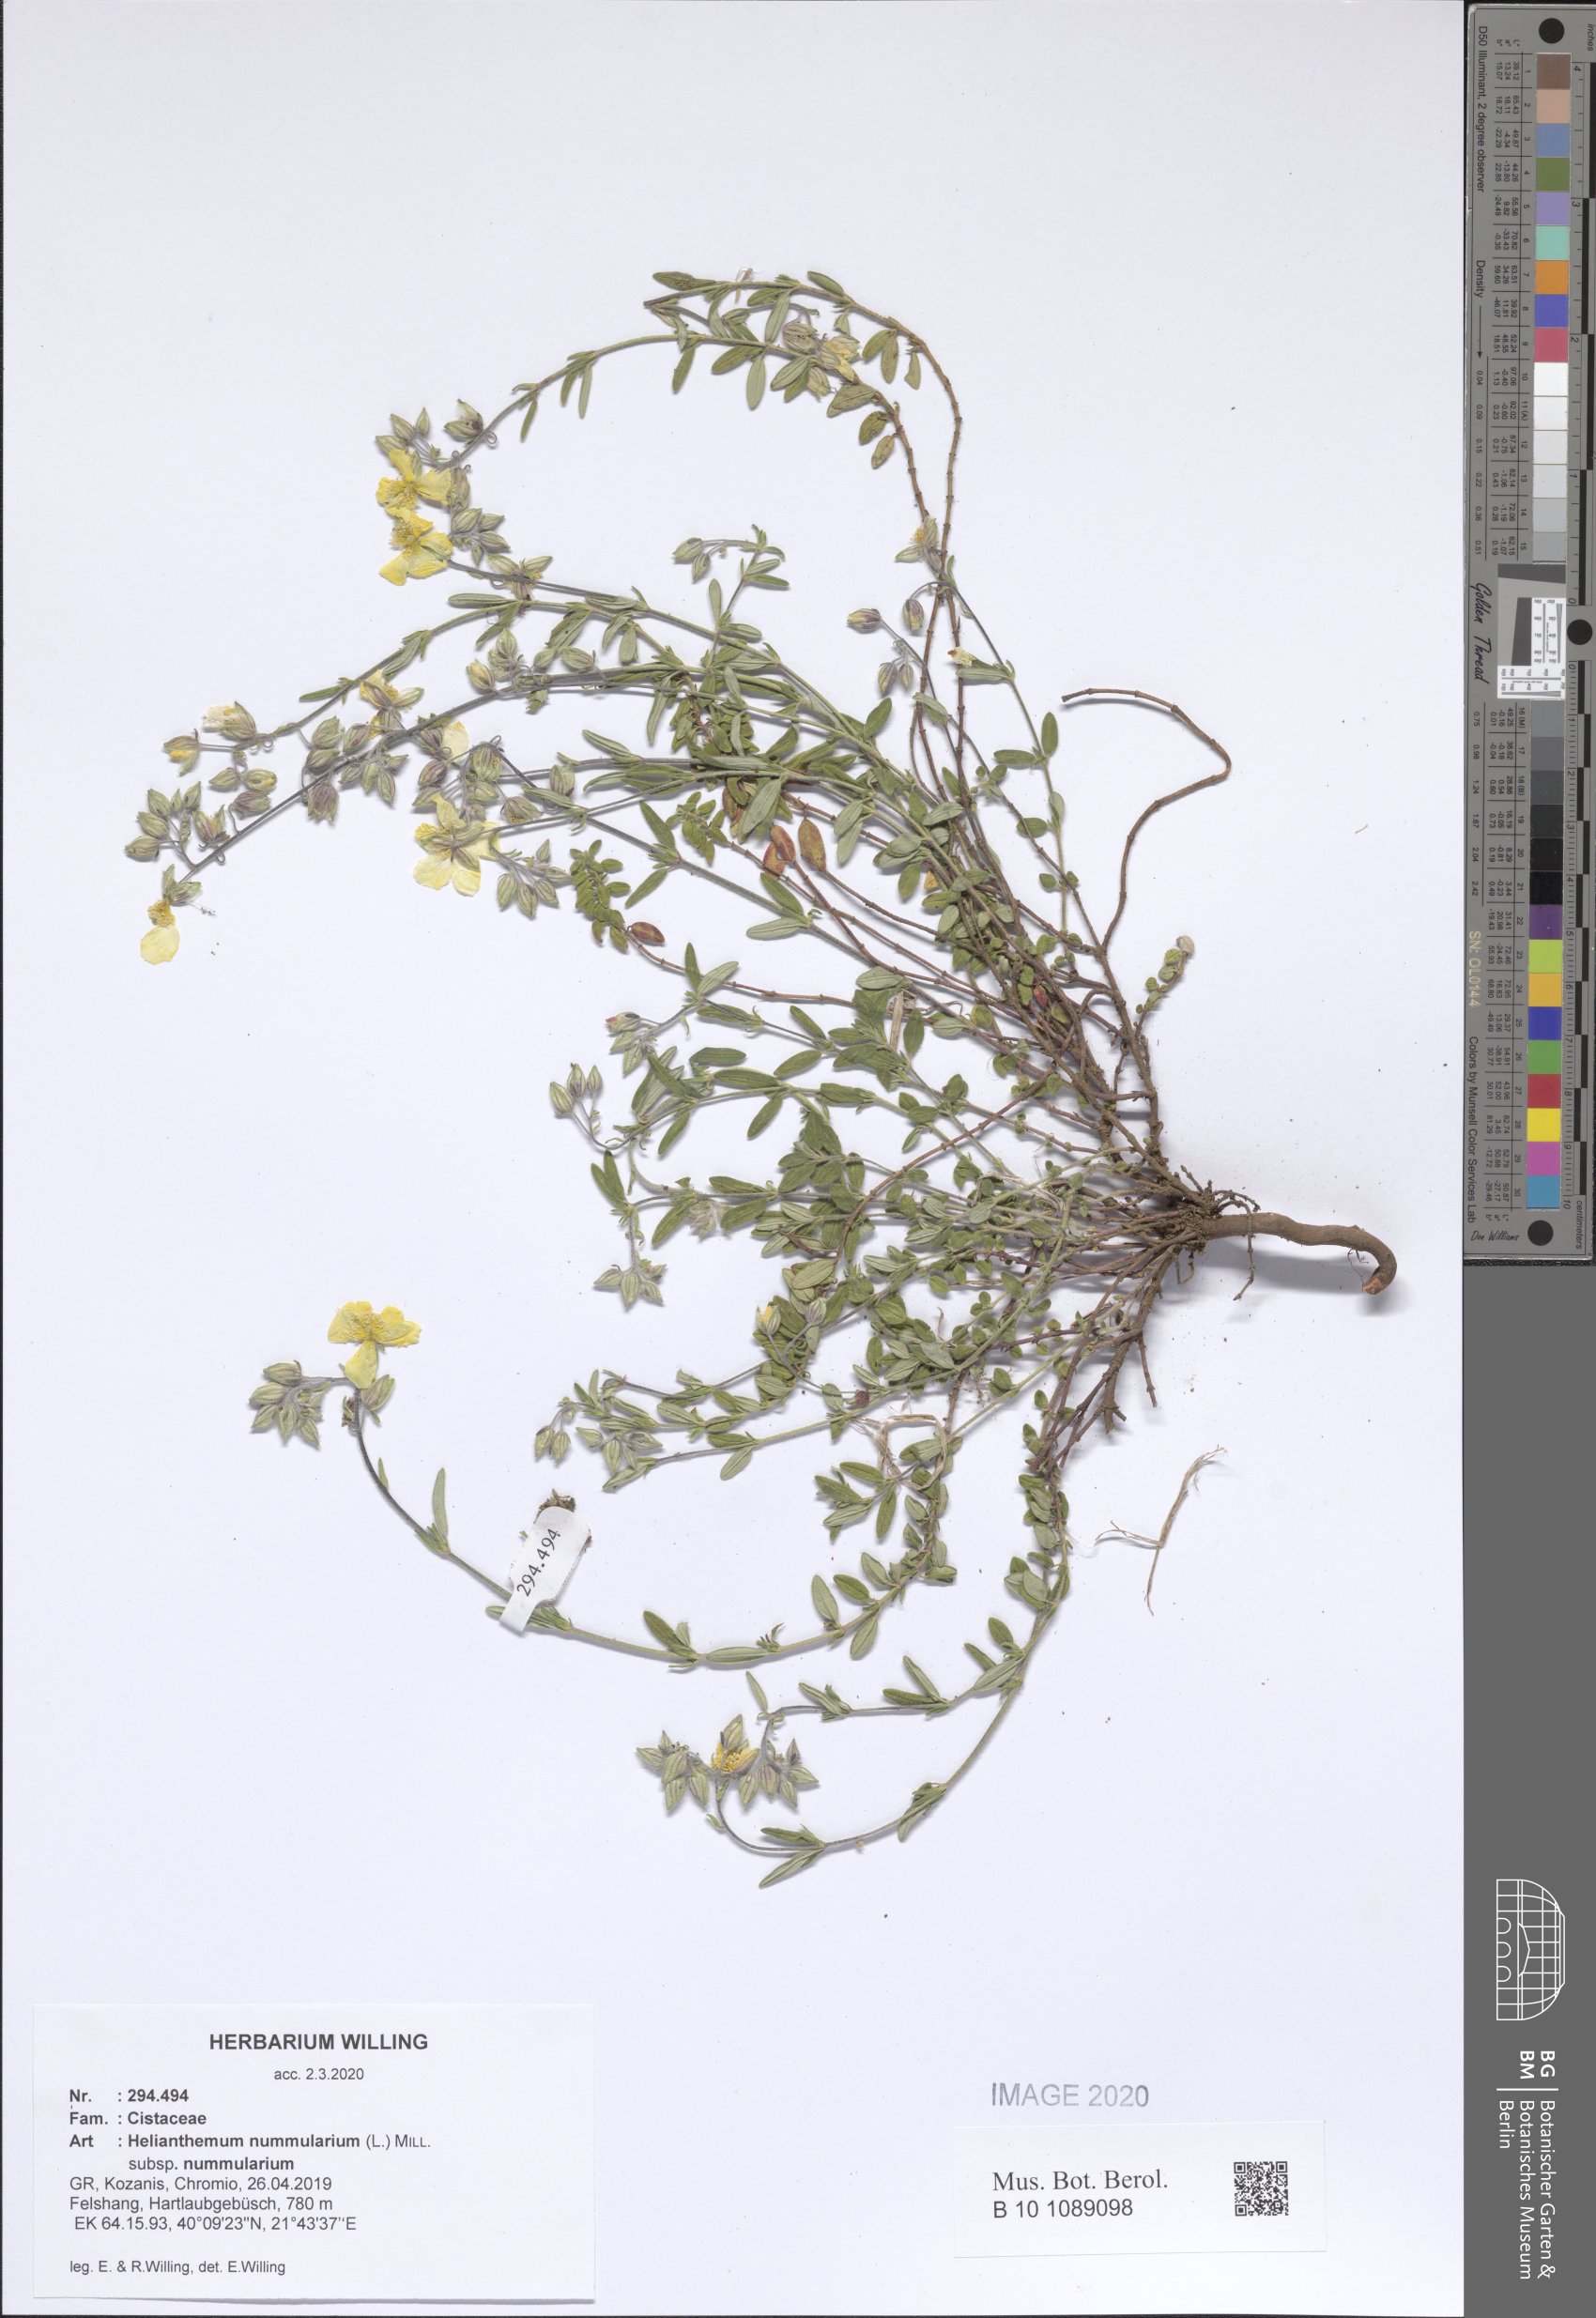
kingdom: Plantae
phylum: Tracheophyta
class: Magnoliopsida
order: Malvales
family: Cistaceae
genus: Helianthemum
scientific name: Helianthemum nummularium
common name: Common rock-rose
